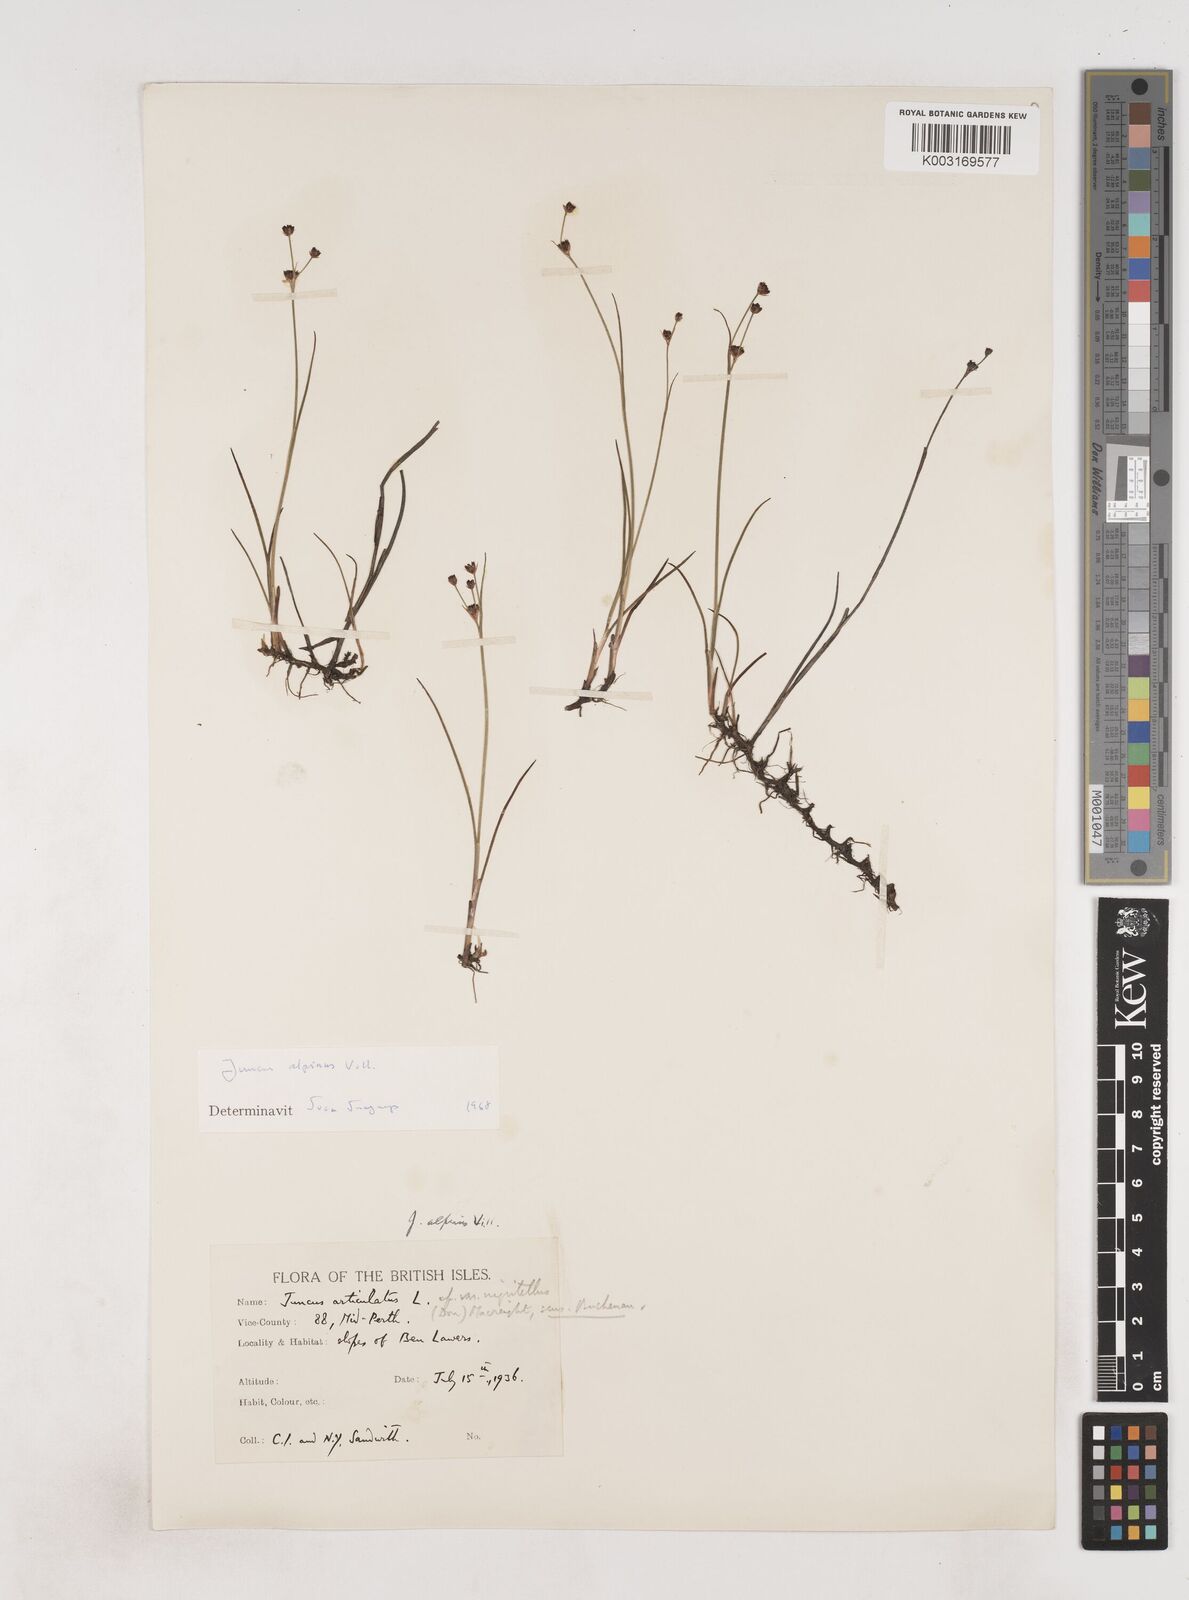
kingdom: Plantae
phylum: Tracheophyta
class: Liliopsida
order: Poales
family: Juncaceae
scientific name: Juncaceae
